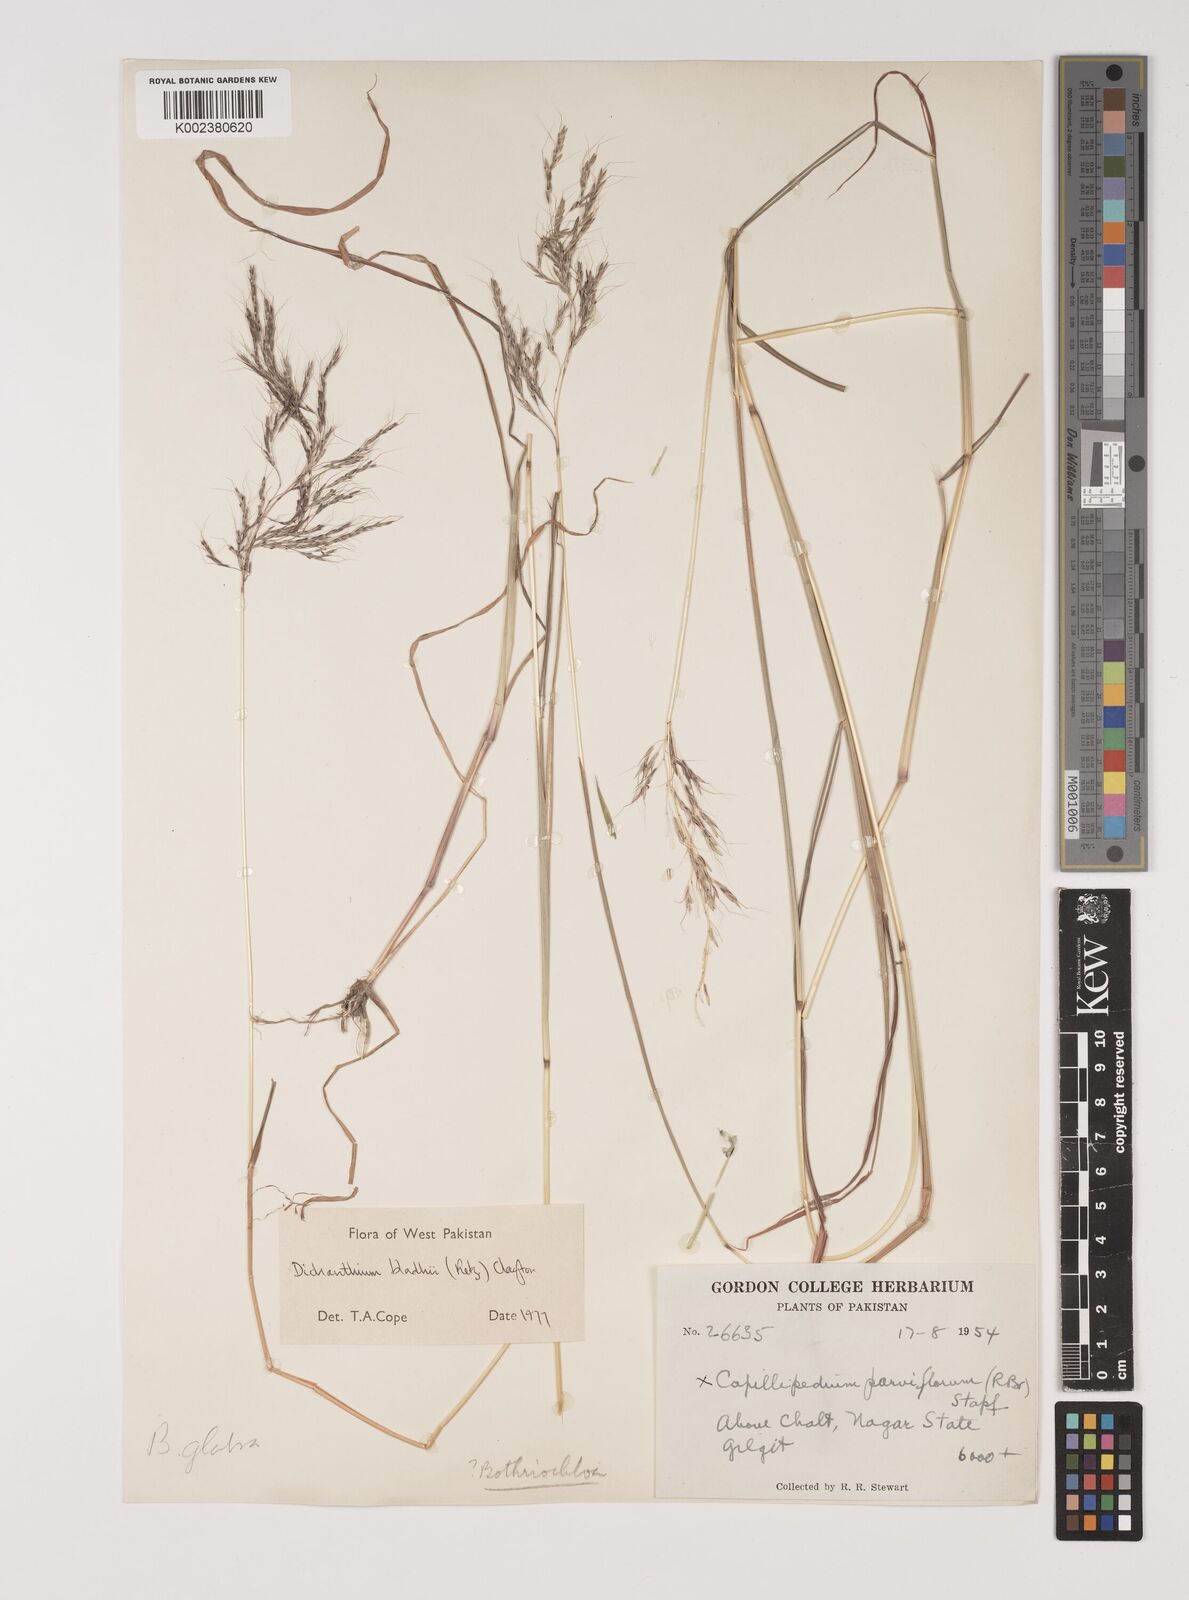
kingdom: Plantae
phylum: Tracheophyta
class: Liliopsida
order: Poales
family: Poaceae
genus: Bothriochloa
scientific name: Bothriochloa bladhii
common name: Caucasian bluestem
